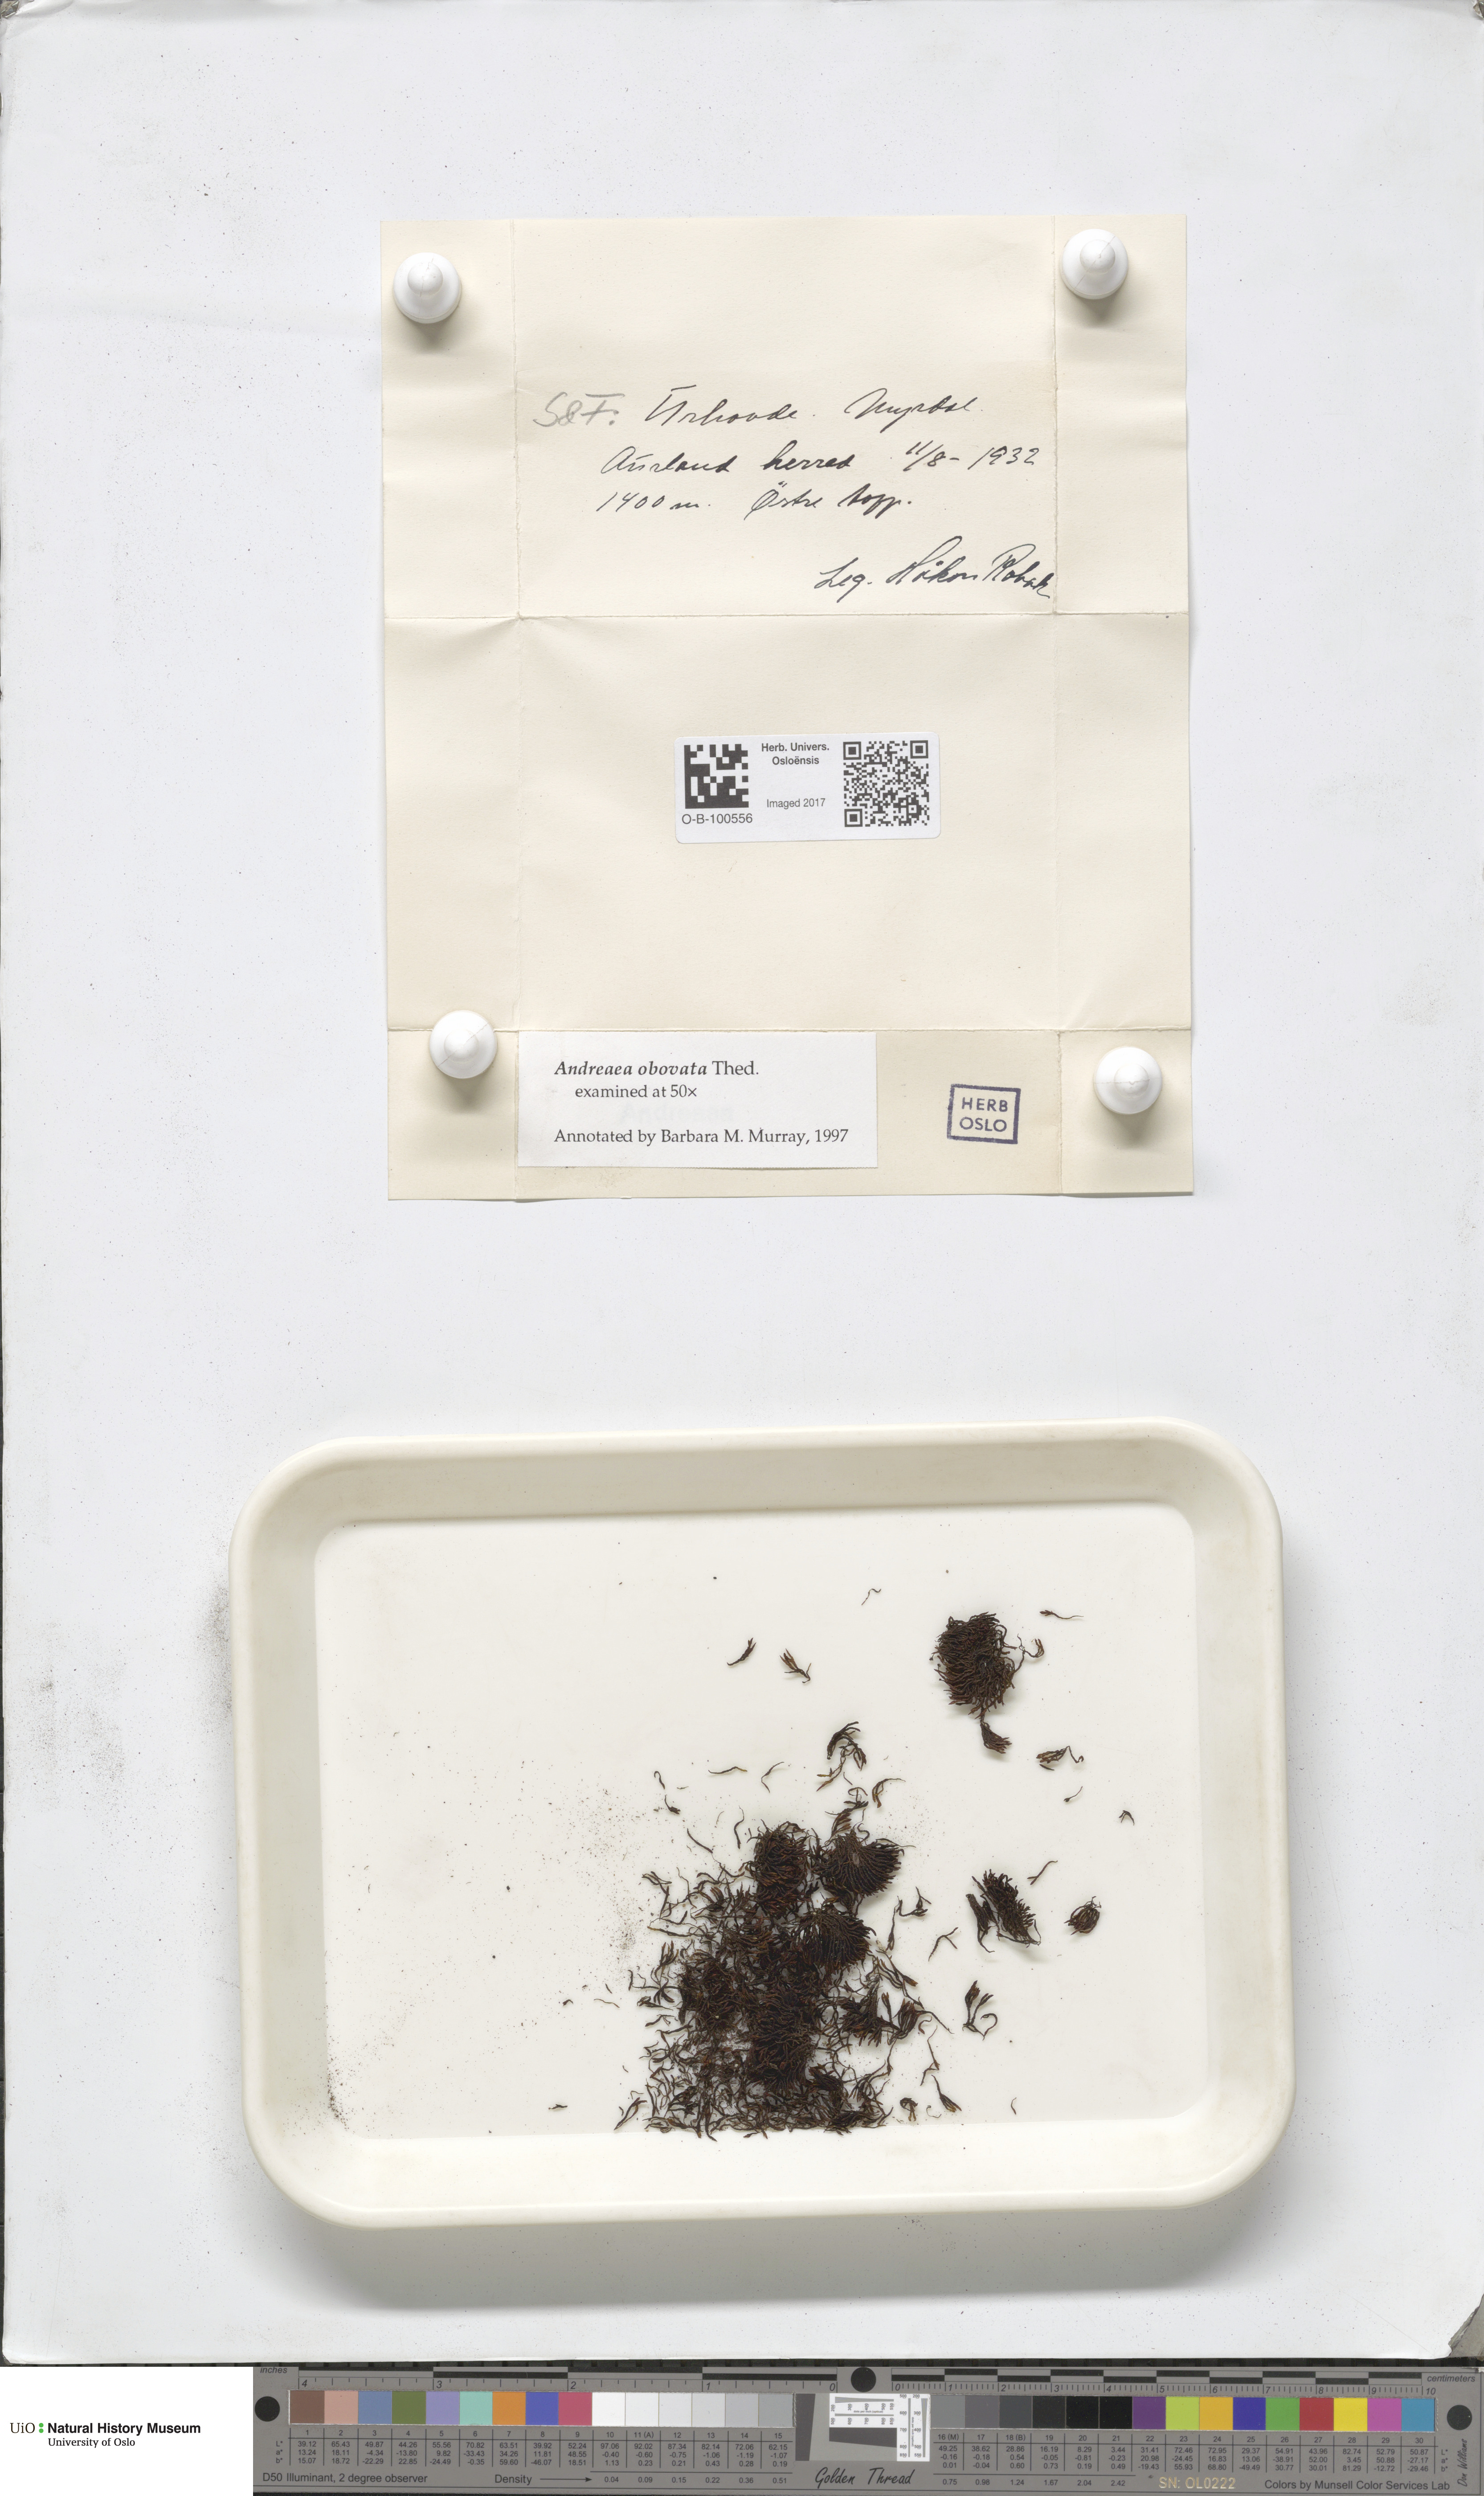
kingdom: Plantae
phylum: Bryophyta
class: Andreaeopsida
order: Andreaeales
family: Andreaeaceae
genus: Andreaea
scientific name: Andreaea alpina
